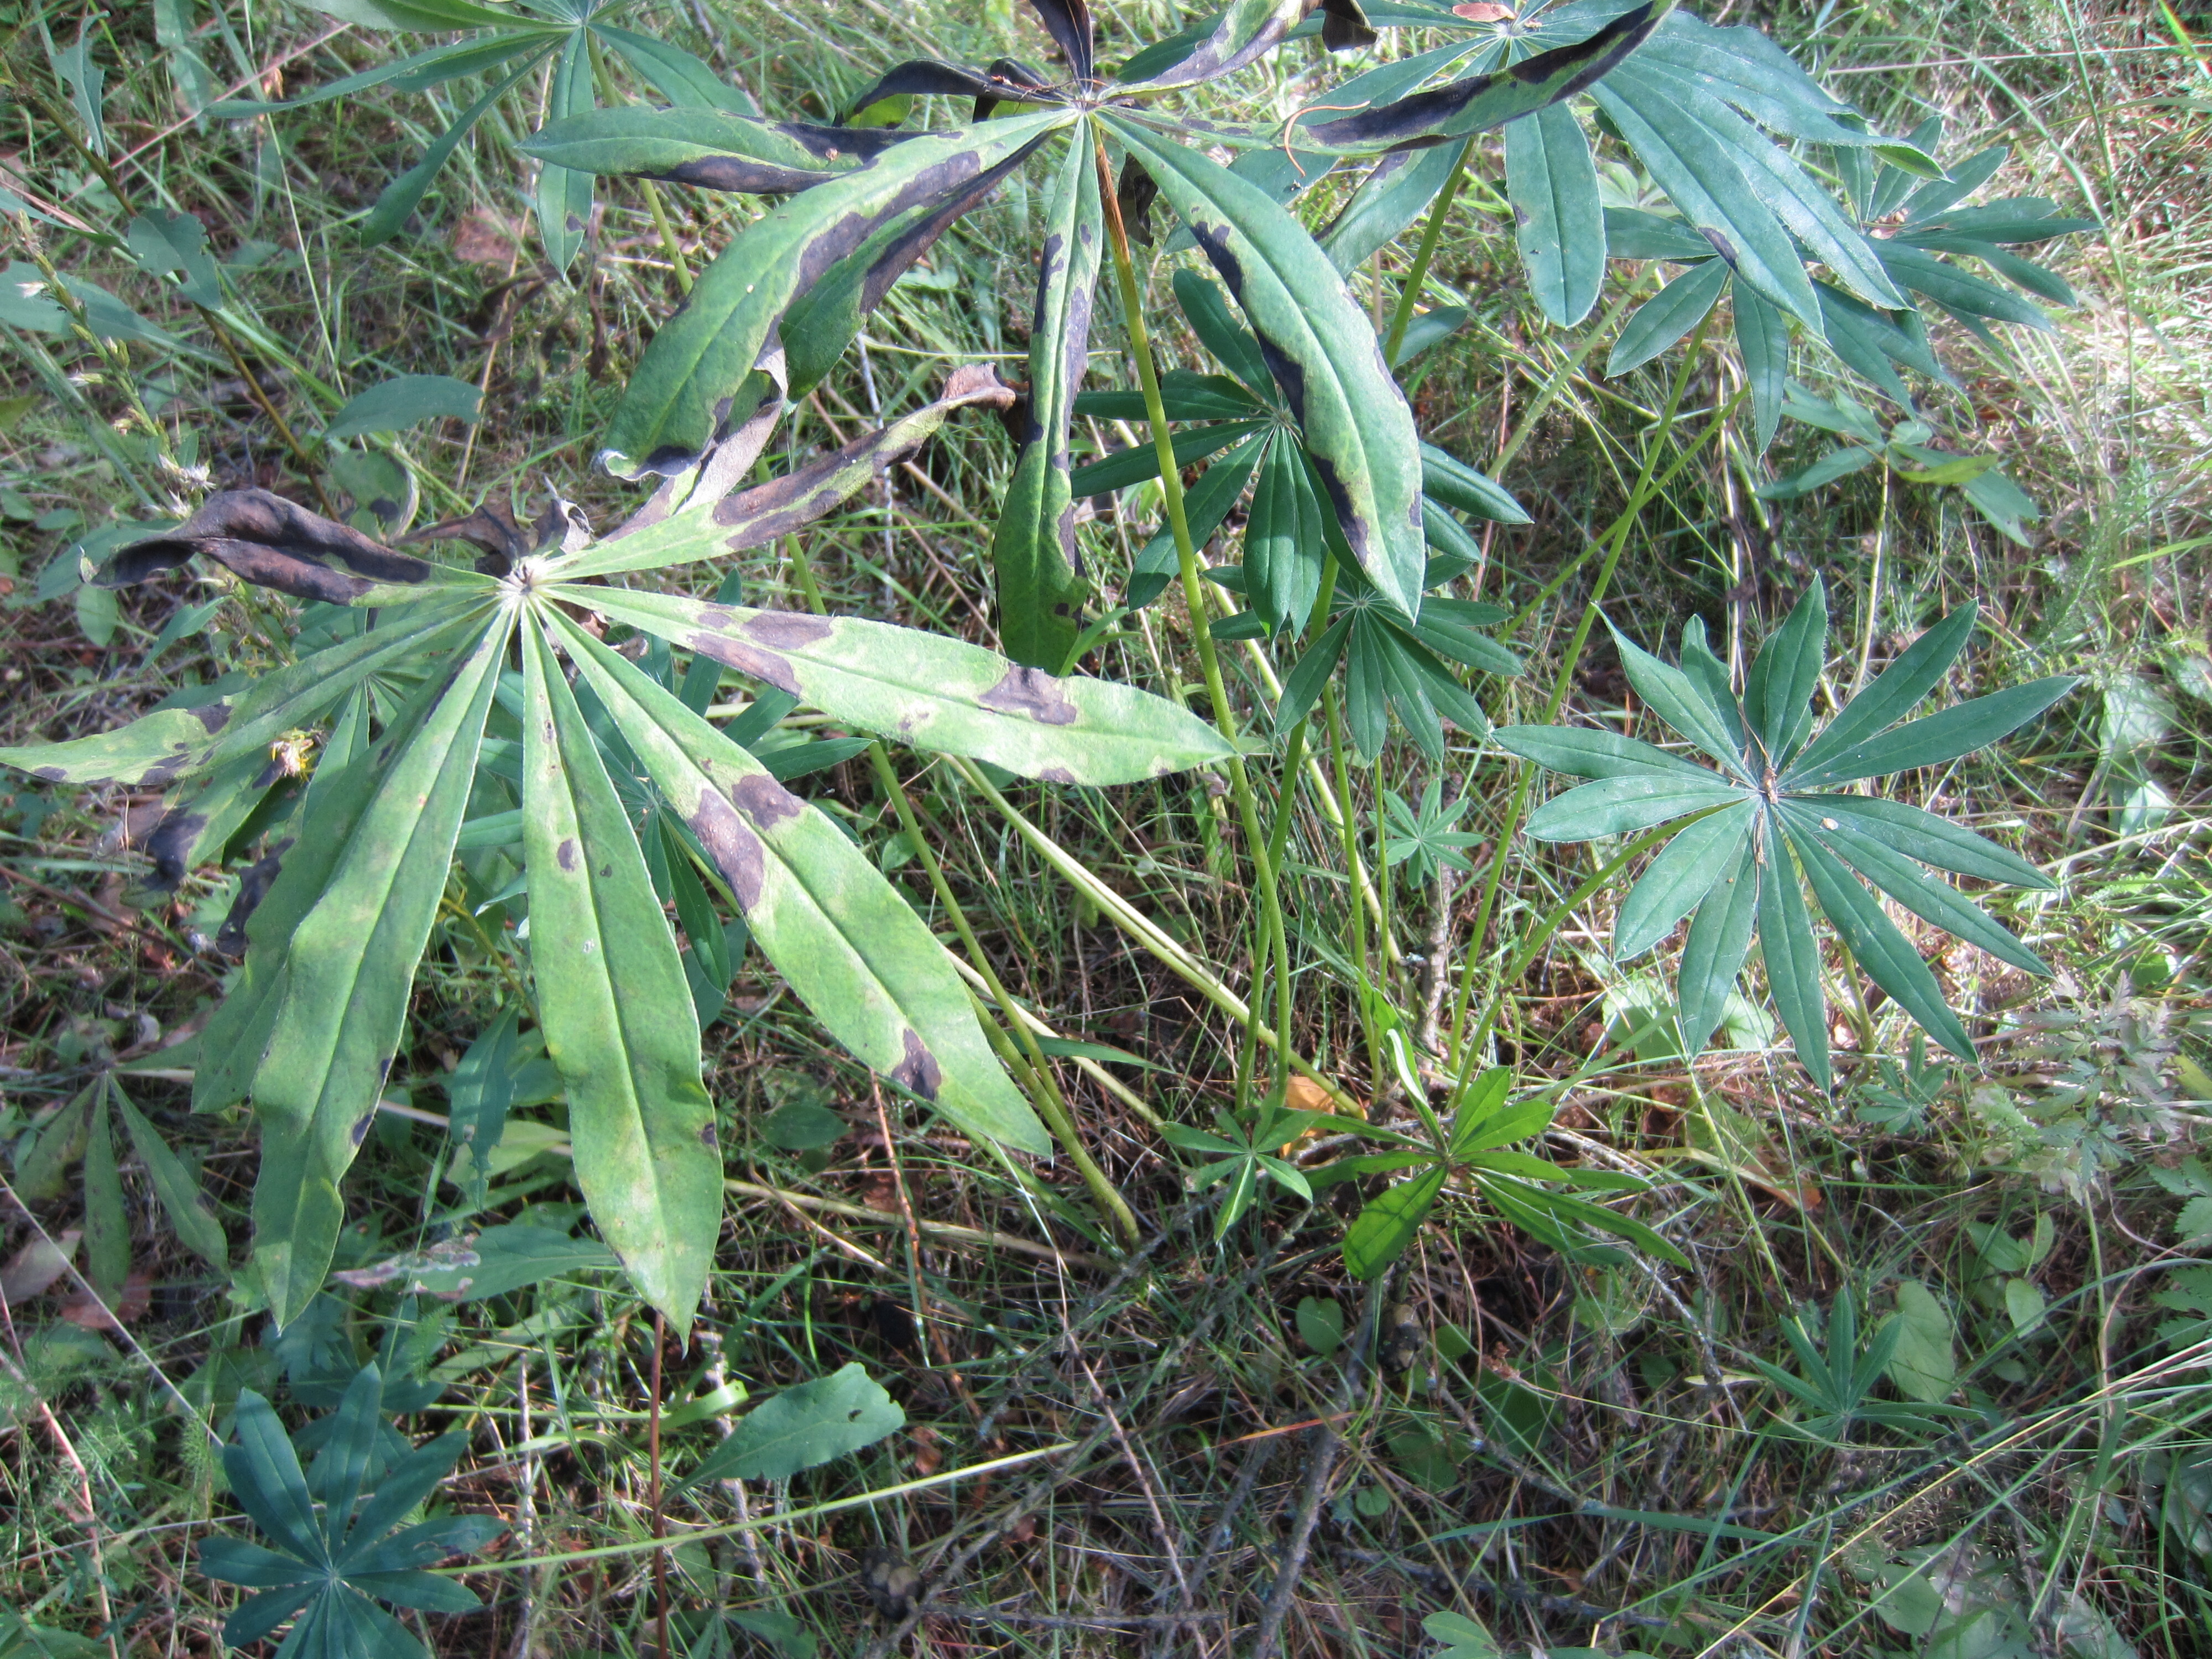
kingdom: Plantae
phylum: Tracheophyta
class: Magnoliopsida
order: Fabales
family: Fabaceae
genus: Lupinus
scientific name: Lupinus polyphyllus
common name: Garden lupin
